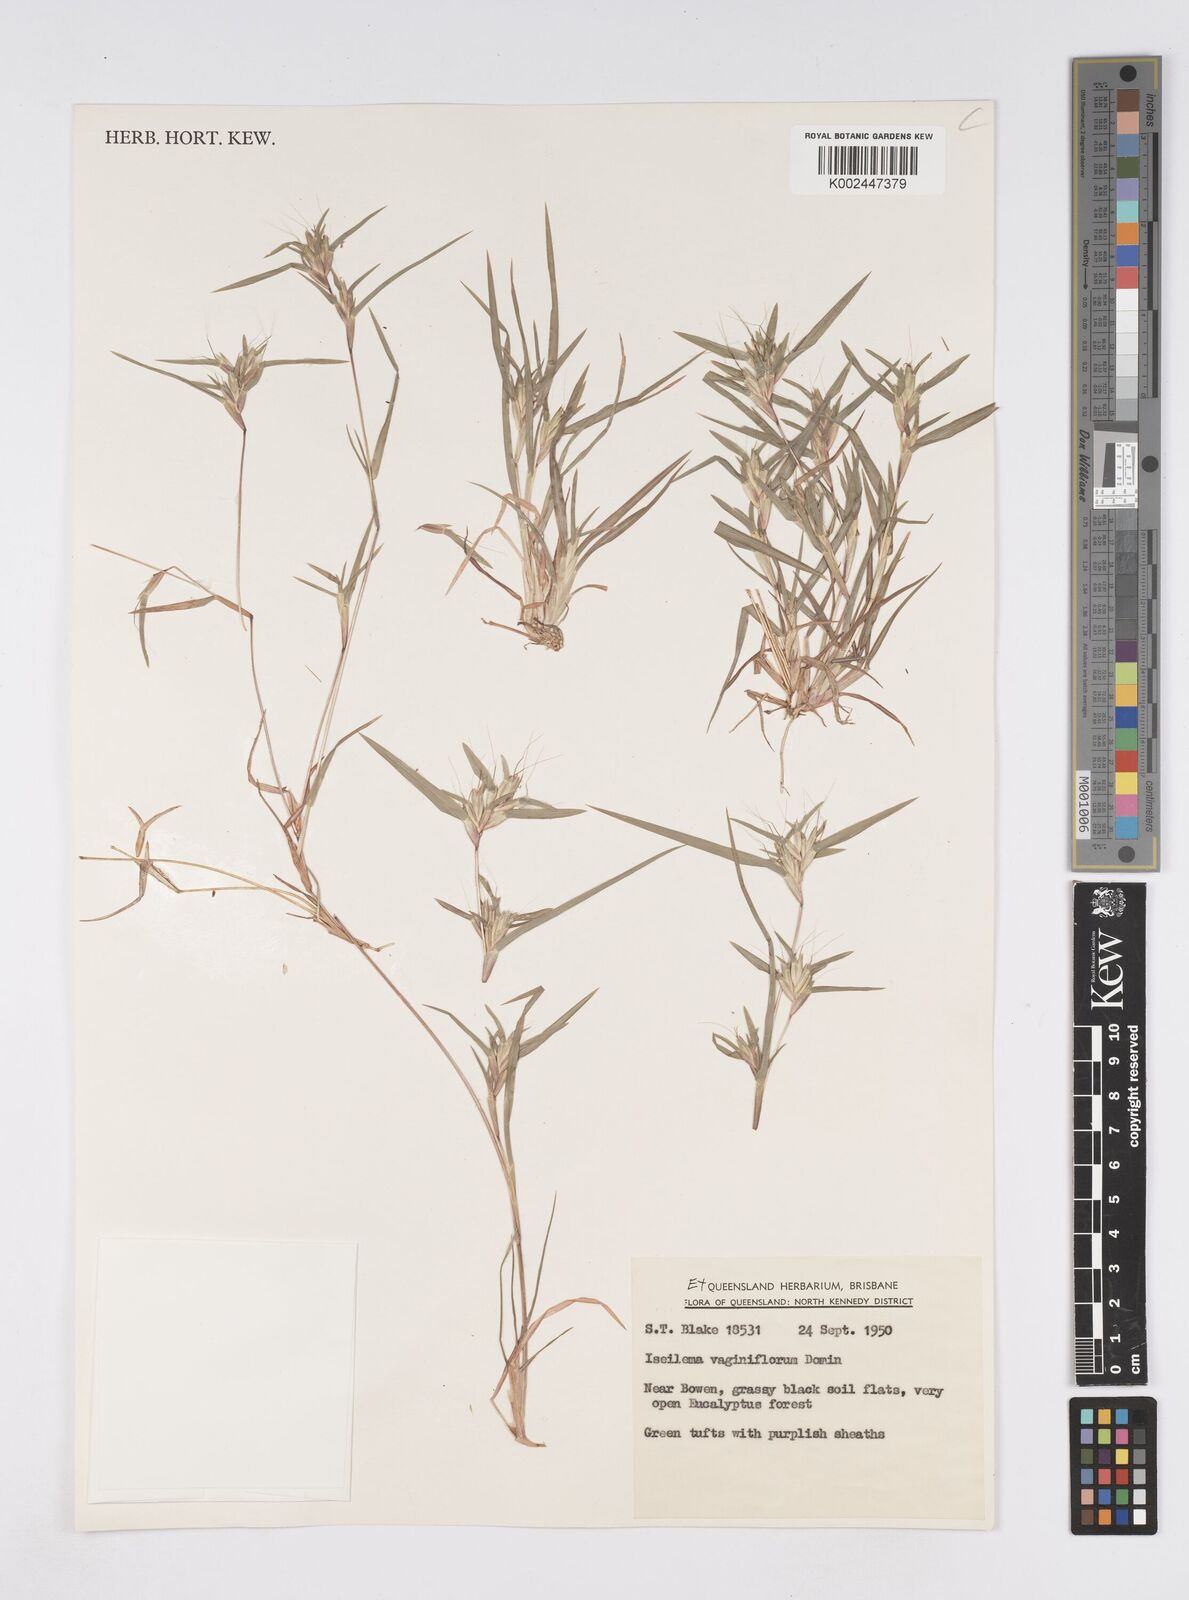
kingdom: Plantae
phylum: Tracheophyta
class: Liliopsida
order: Poales
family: Poaceae
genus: Iseilema
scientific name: Iseilema vaginiflorum
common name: Red flinders grass
